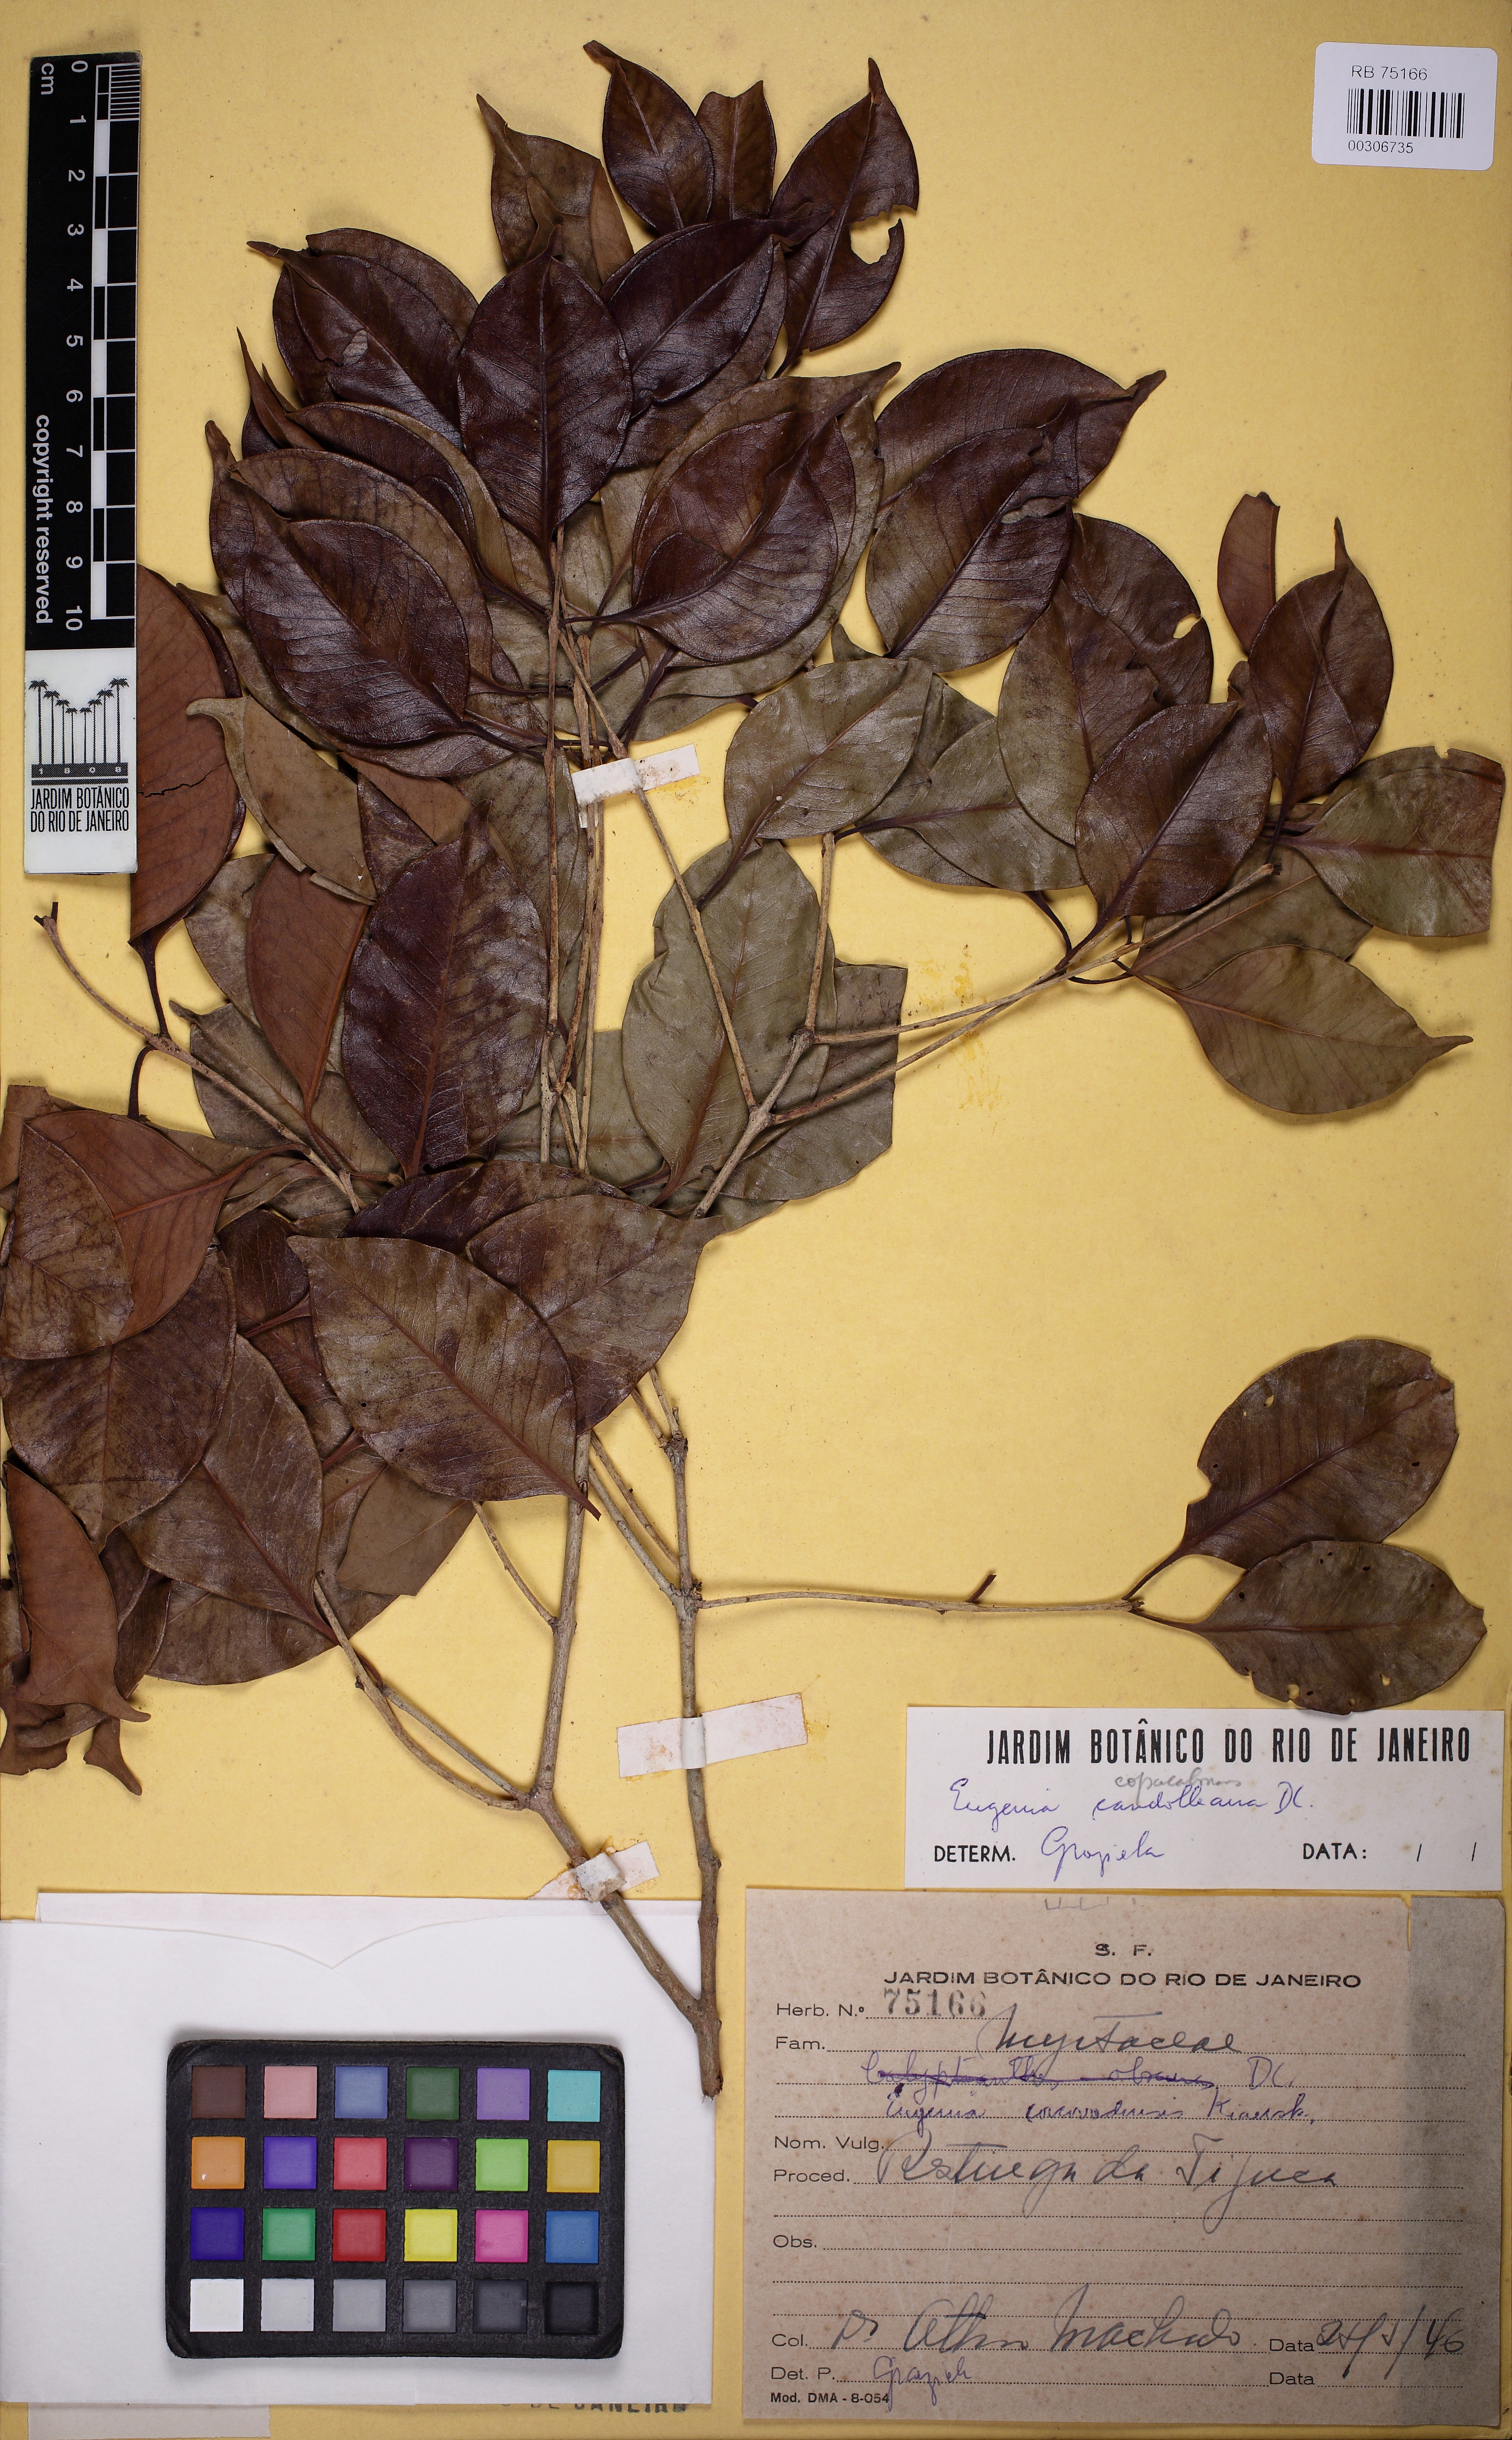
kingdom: Plantae
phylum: Tracheophyta
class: Magnoliopsida
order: Myrtales
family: Myrtaceae
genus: Eugenia
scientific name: Eugenia copacabanensis
